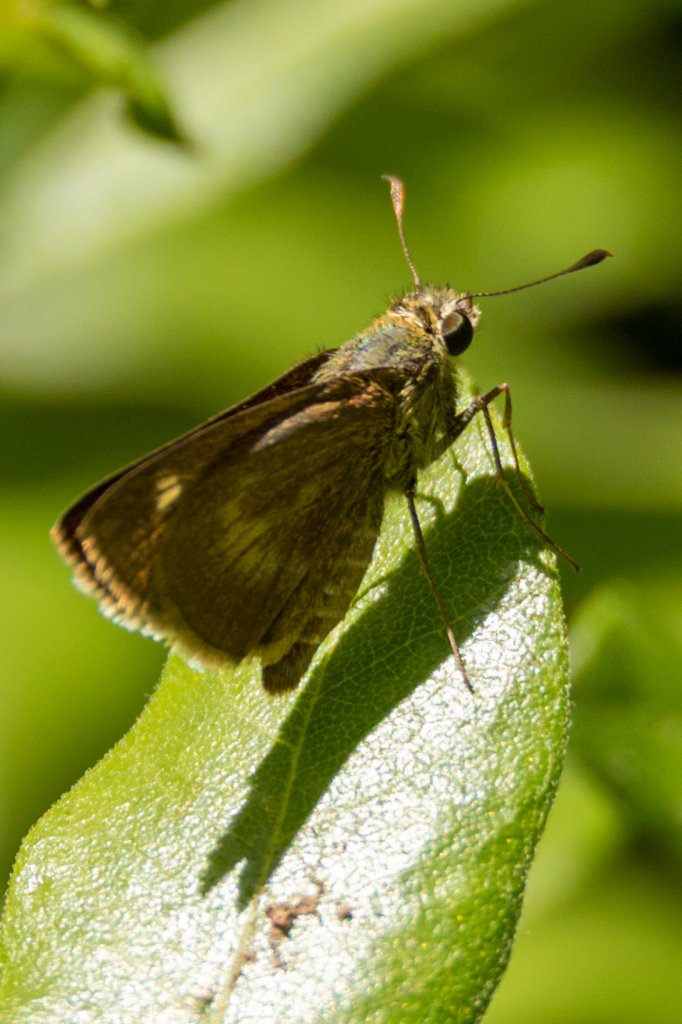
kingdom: Animalia
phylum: Arthropoda
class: Insecta
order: Lepidoptera
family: Hesperiidae
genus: Polites
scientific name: Polites egeremet
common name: Northern Broken-Dash
